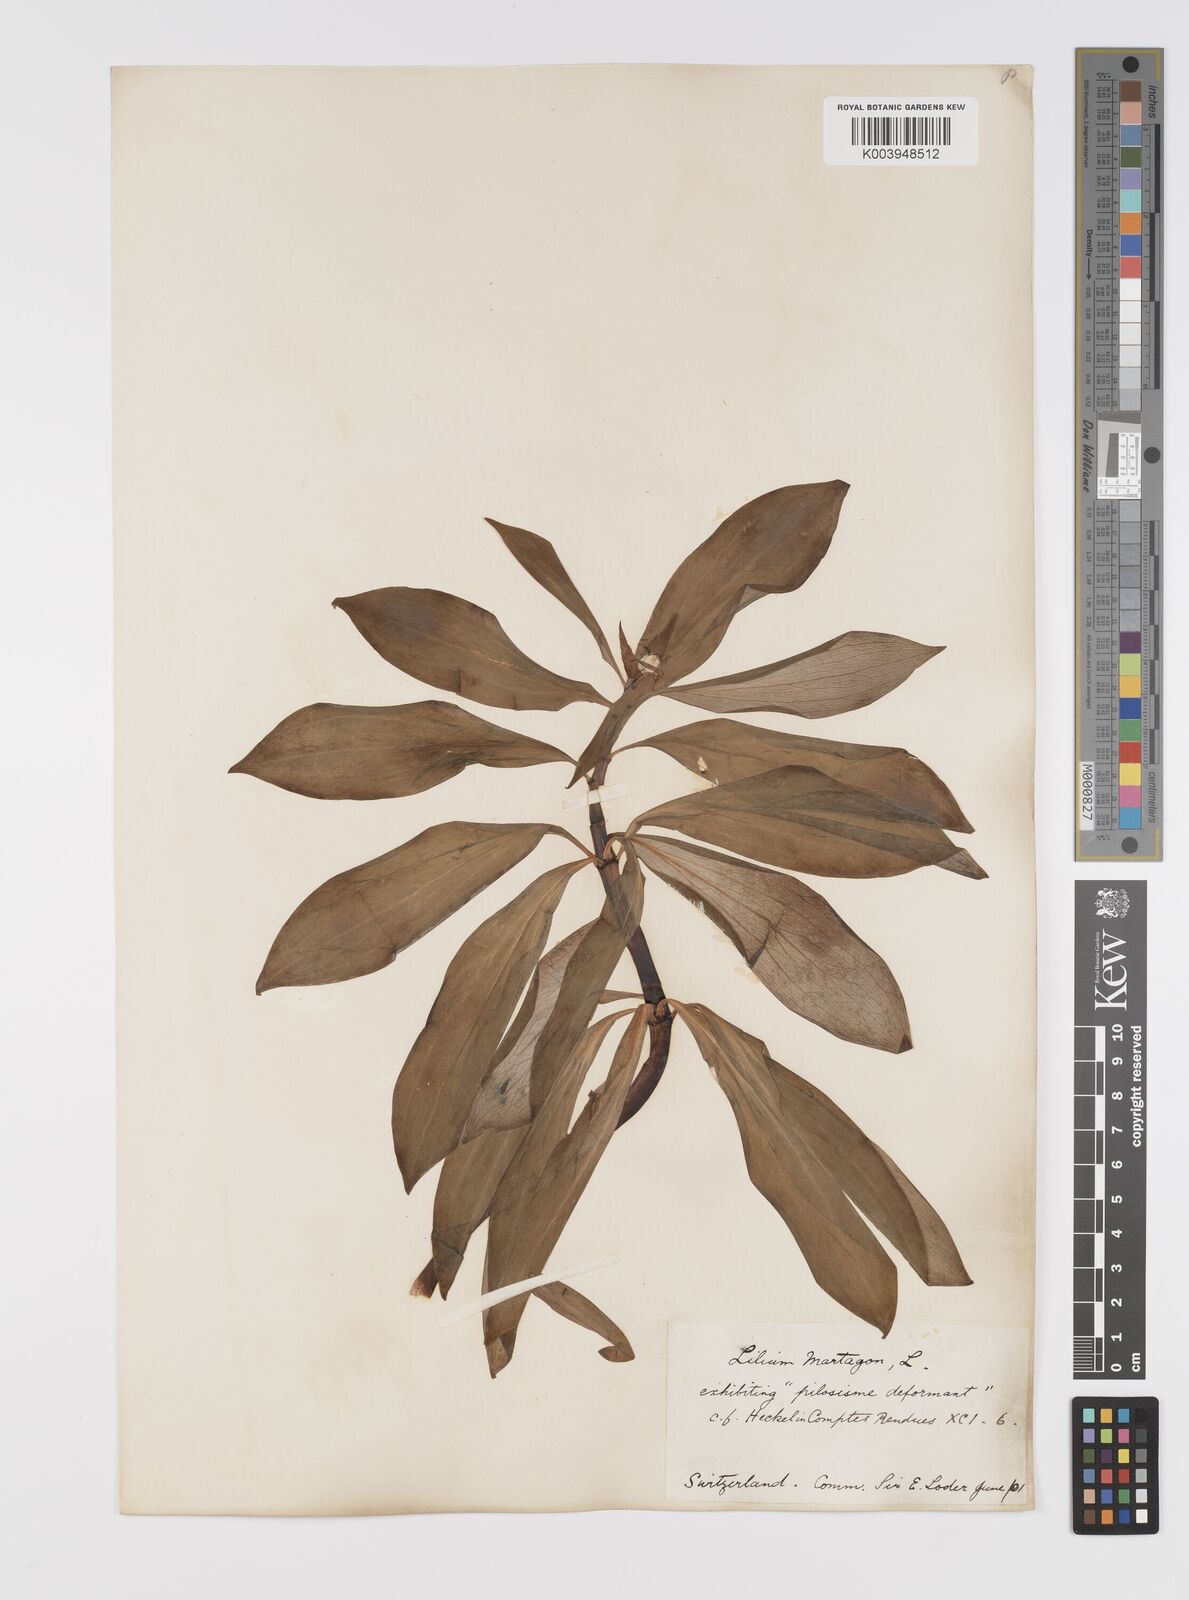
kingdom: Plantae
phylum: Tracheophyta
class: Liliopsida
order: Liliales
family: Liliaceae
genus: Lilium
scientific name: Lilium martagon
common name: Martagon lily
